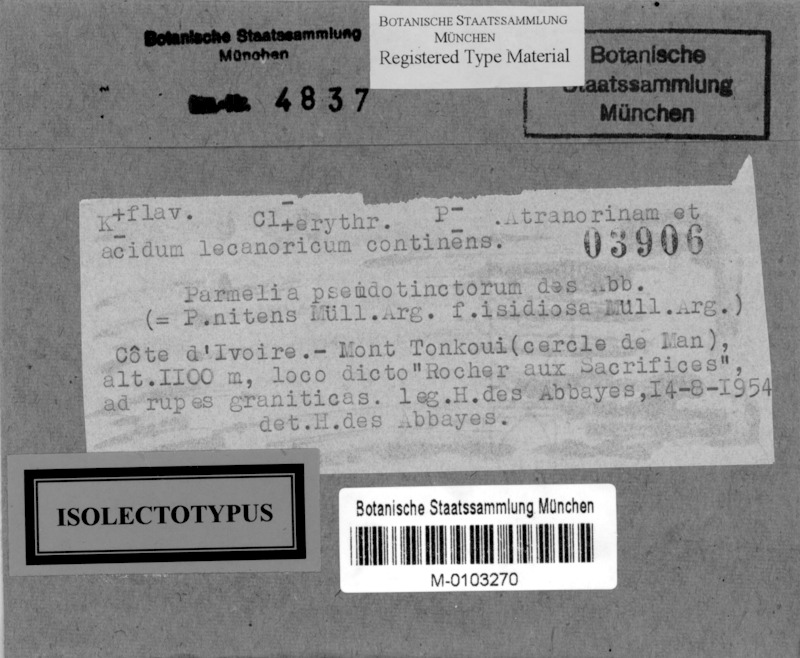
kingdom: Fungi
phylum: Ascomycota
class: Lecanoromycetes
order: Lecanorales
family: Parmeliaceae
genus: Parmotrema
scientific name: Parmotrema pseudotinctorum
